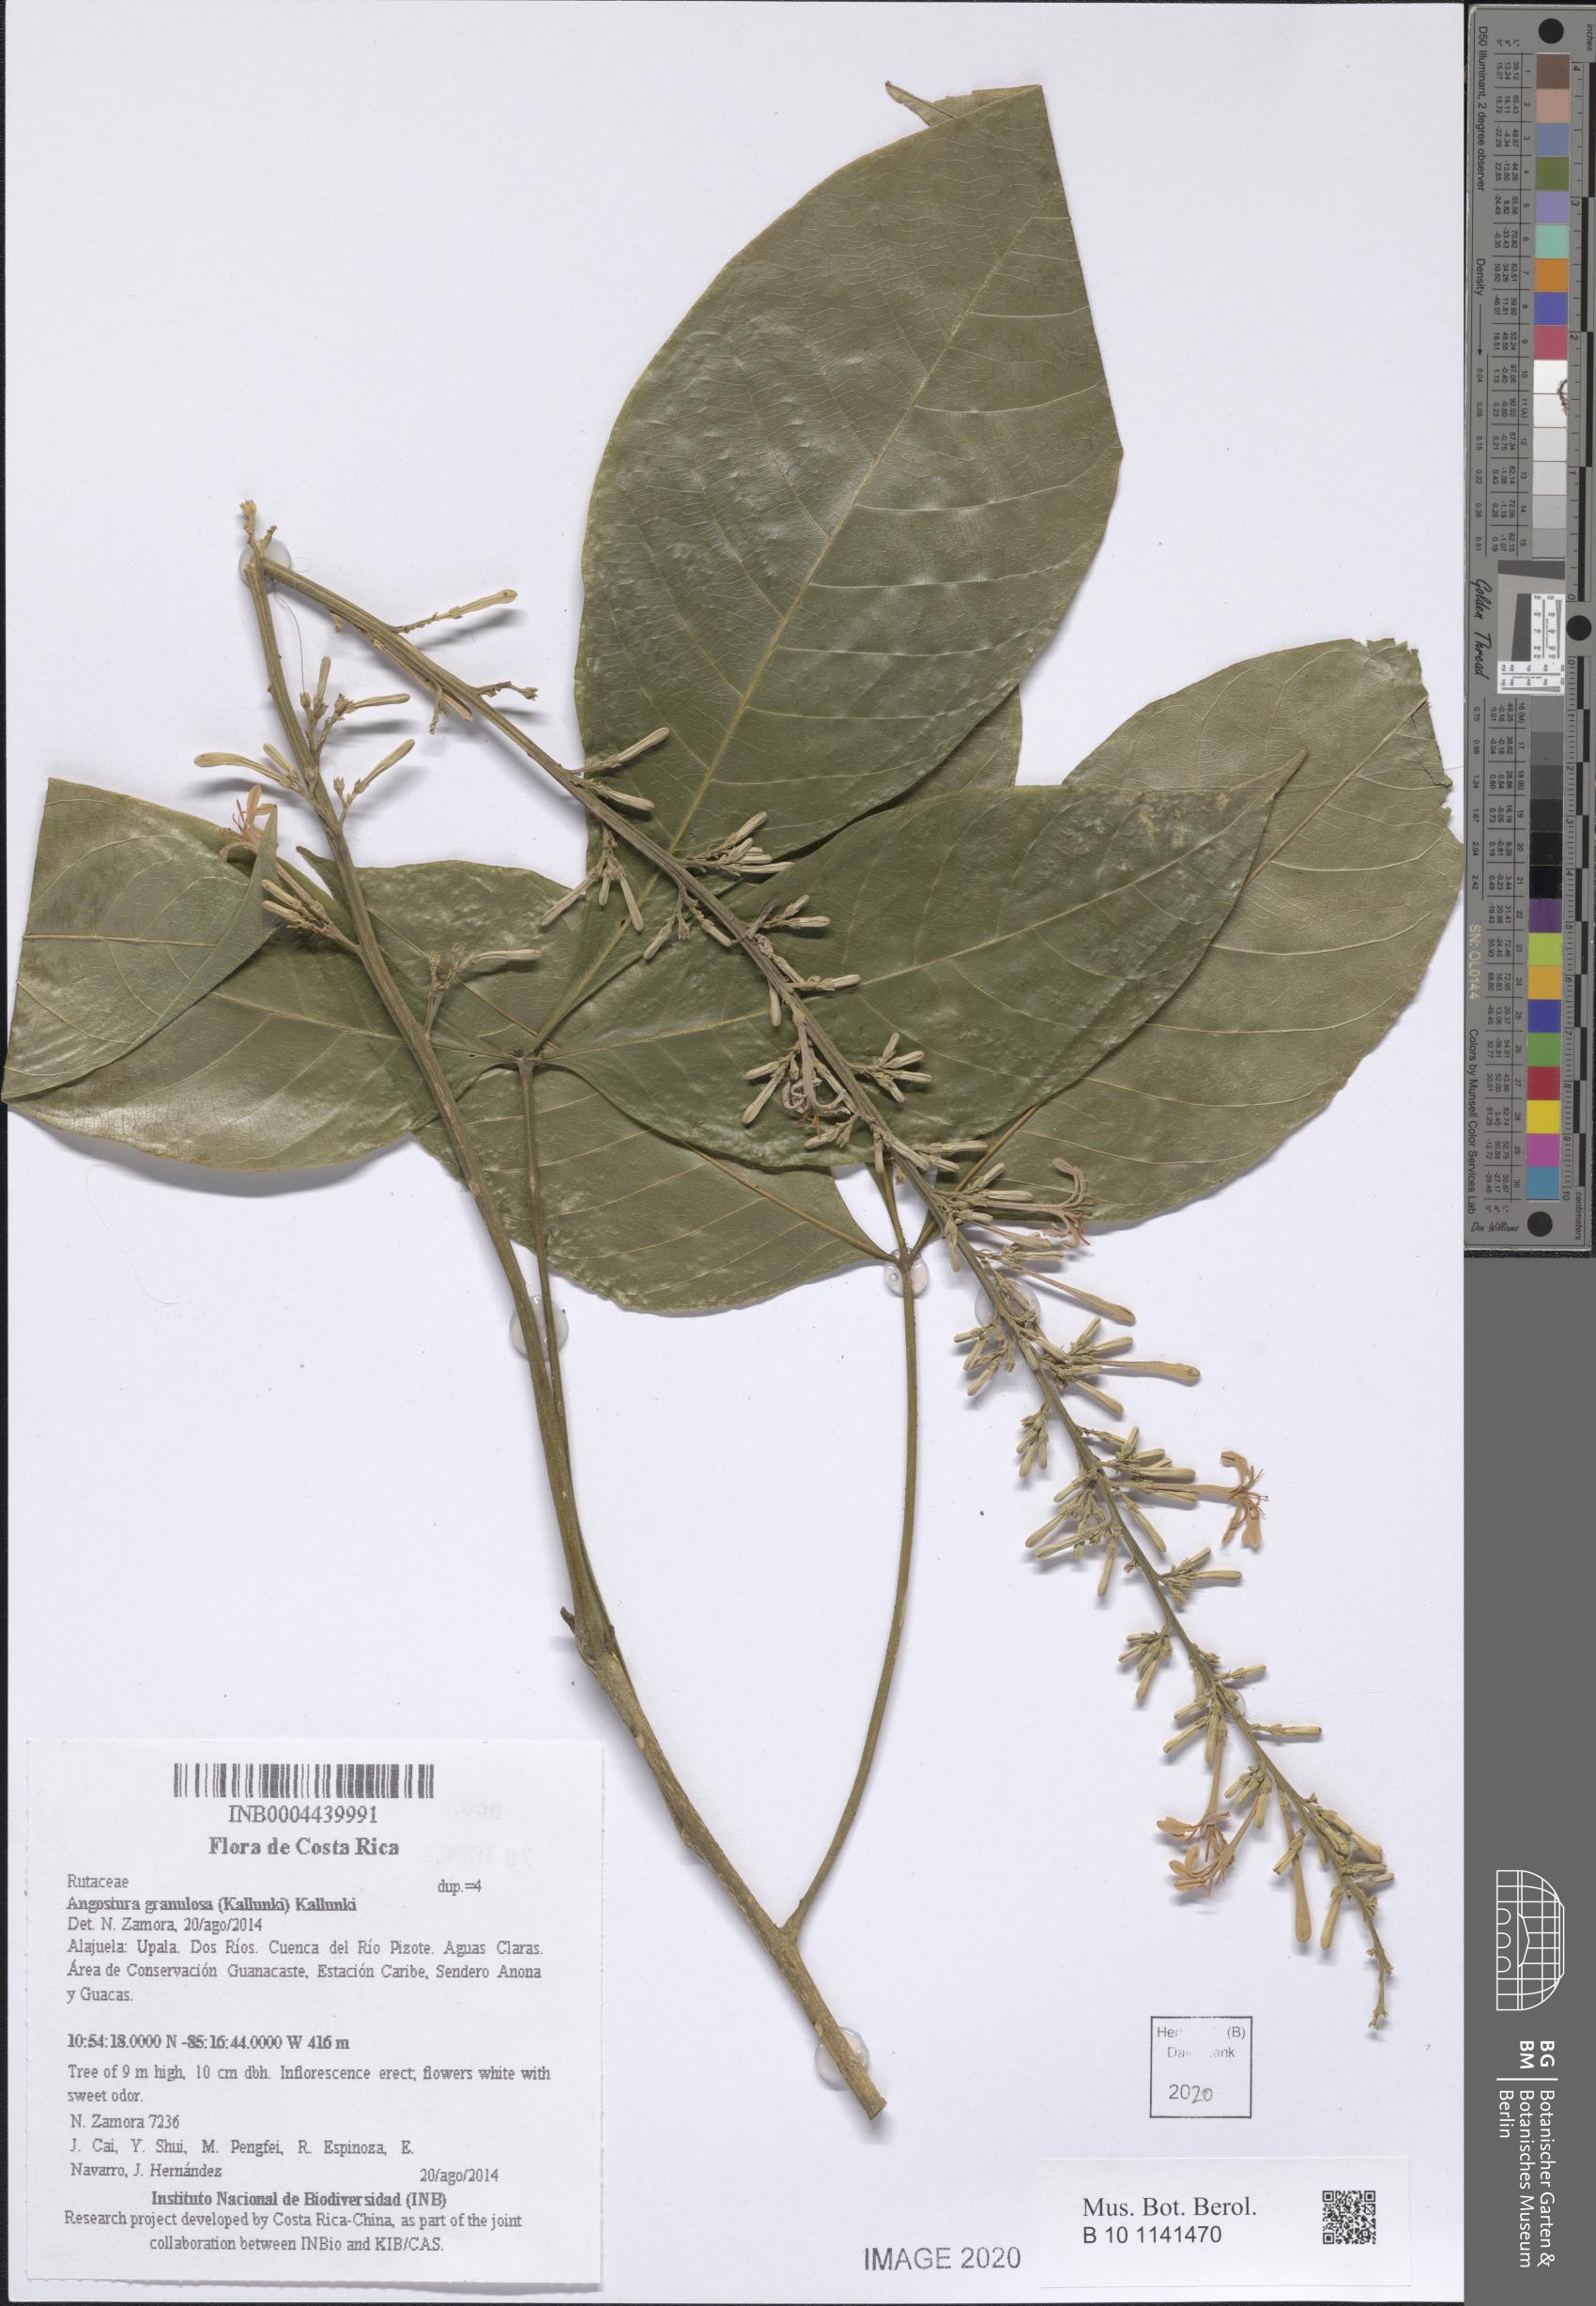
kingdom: Plantae
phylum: Tracheophyta
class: Magnoliopsida
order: Sapindales
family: Rutaceae
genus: Angostura
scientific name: Angostura granulosa
